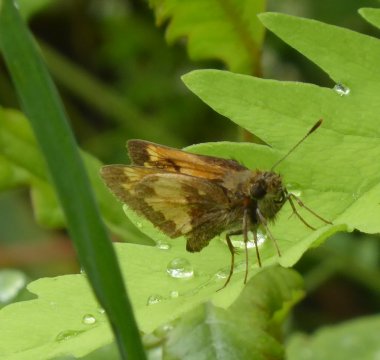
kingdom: Animalia
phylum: Arthropoda
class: Insecta
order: Lepidoptera
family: Hesperiidae
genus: Lon
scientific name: Lon hobomok
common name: Hobomok Skipper
